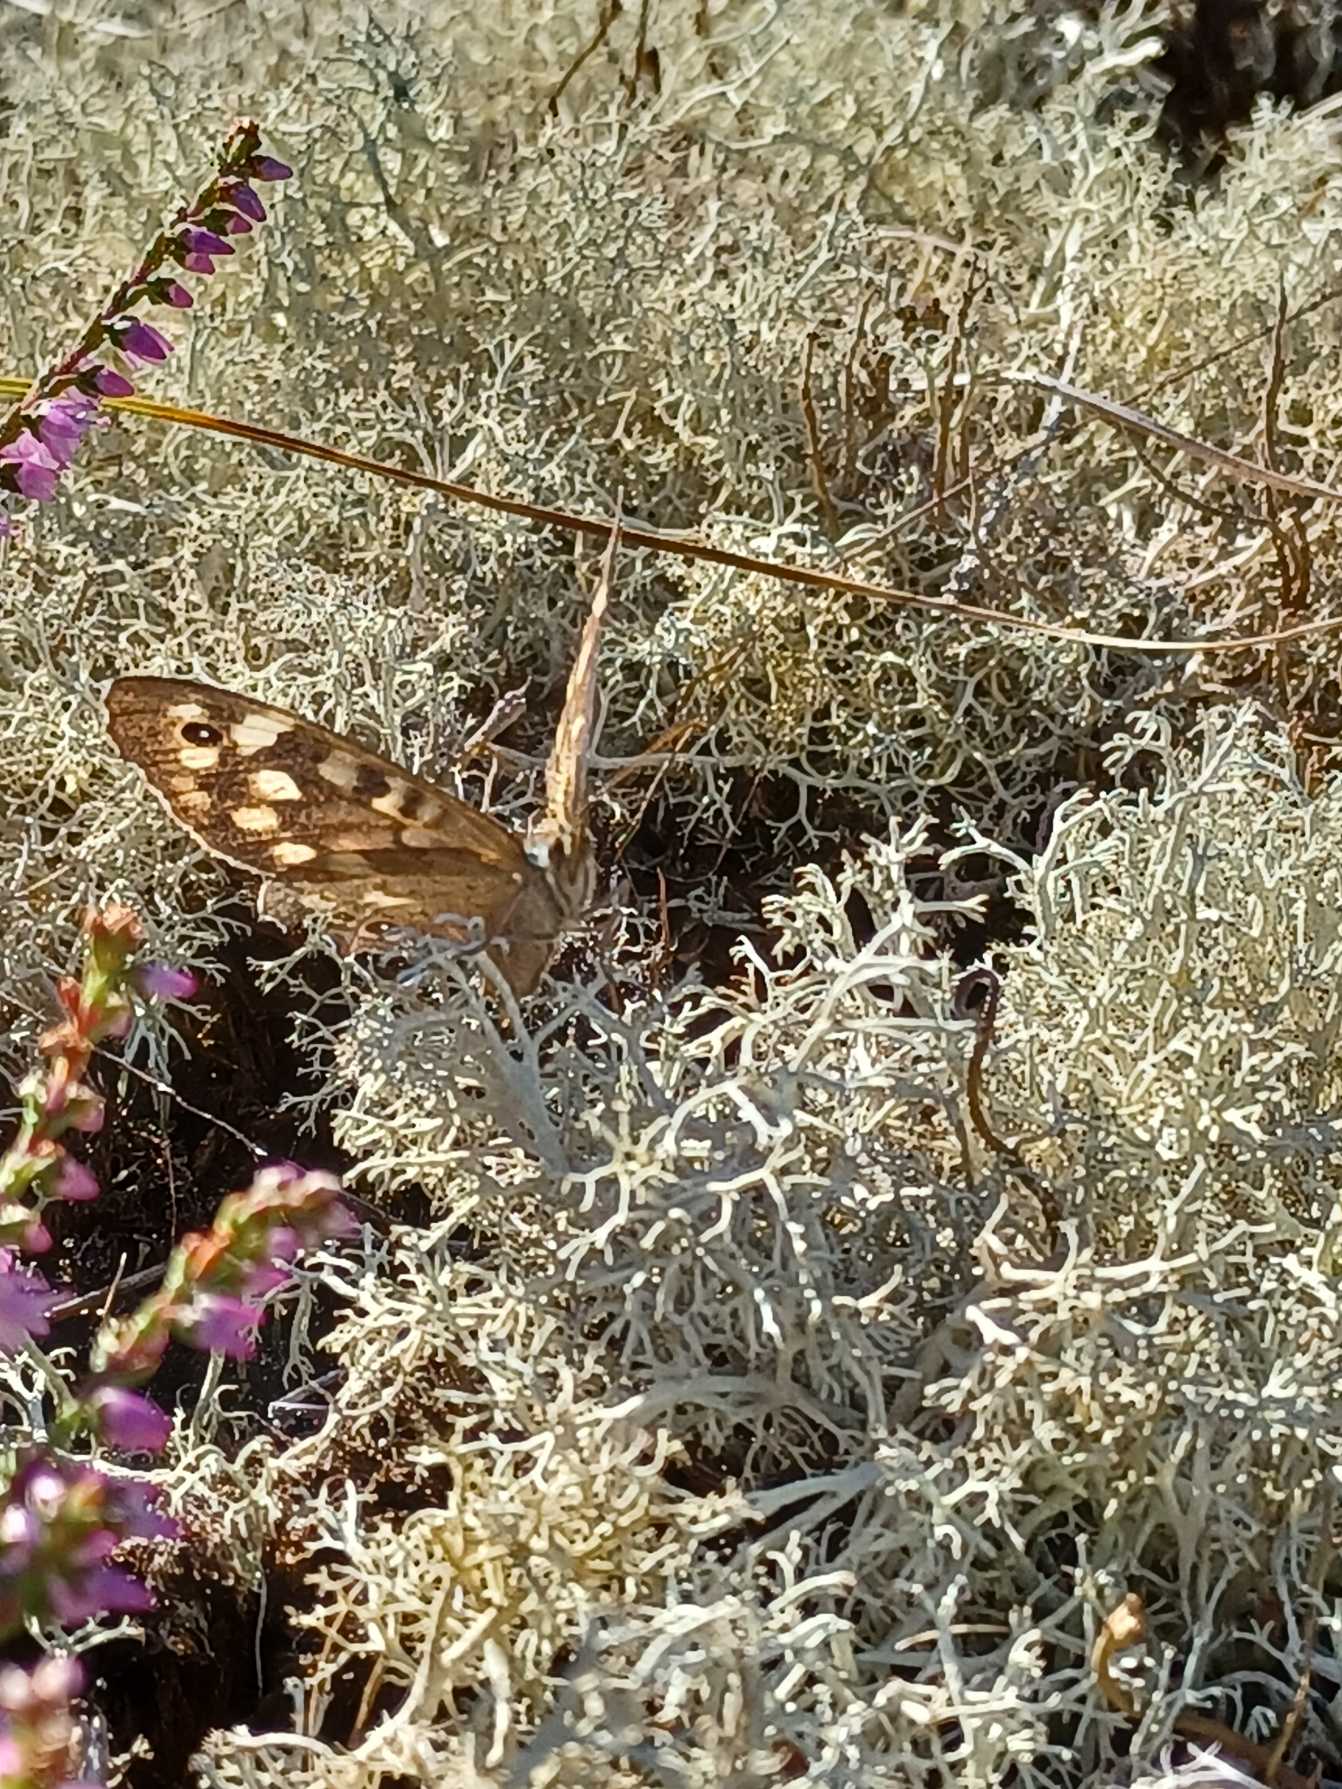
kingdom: Animalia
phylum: Arthropoda
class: Insecta
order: Lepidoptera
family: Nymphalidae
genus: Pararge
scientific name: Pararge aegeria
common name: Skovrandøje
